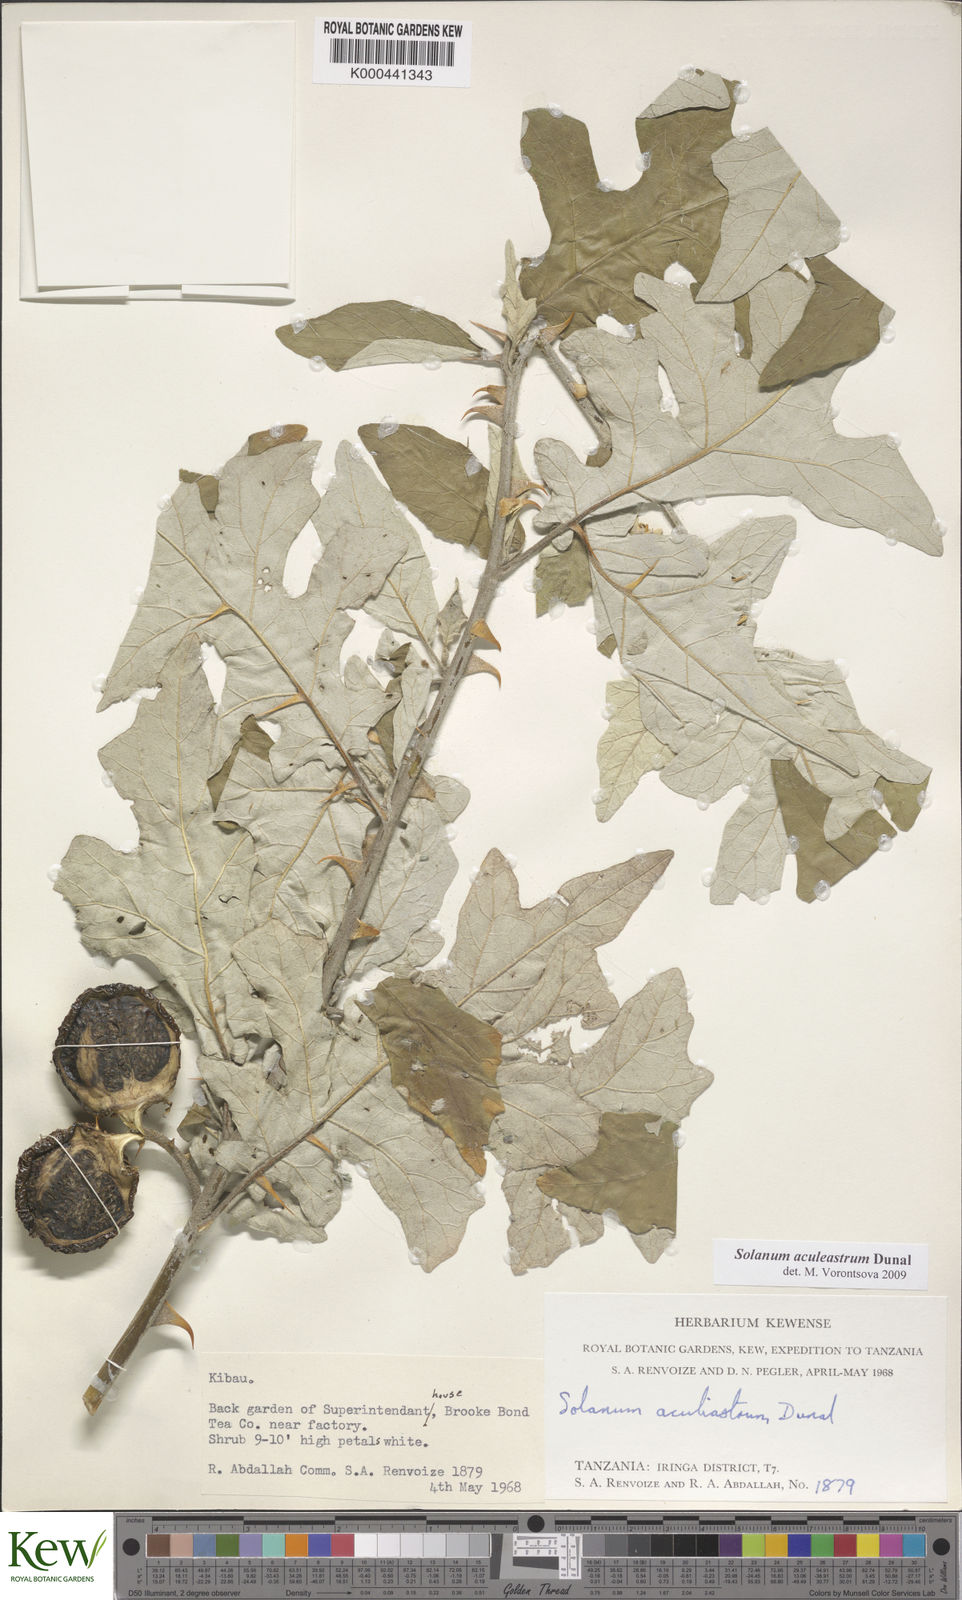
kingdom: Plantae
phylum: Tracheophyta
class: Magnoliopsida
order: Solanales
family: Solanaceae
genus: Solanum
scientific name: Solanum aculeastrum
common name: Goat bitter-apple
